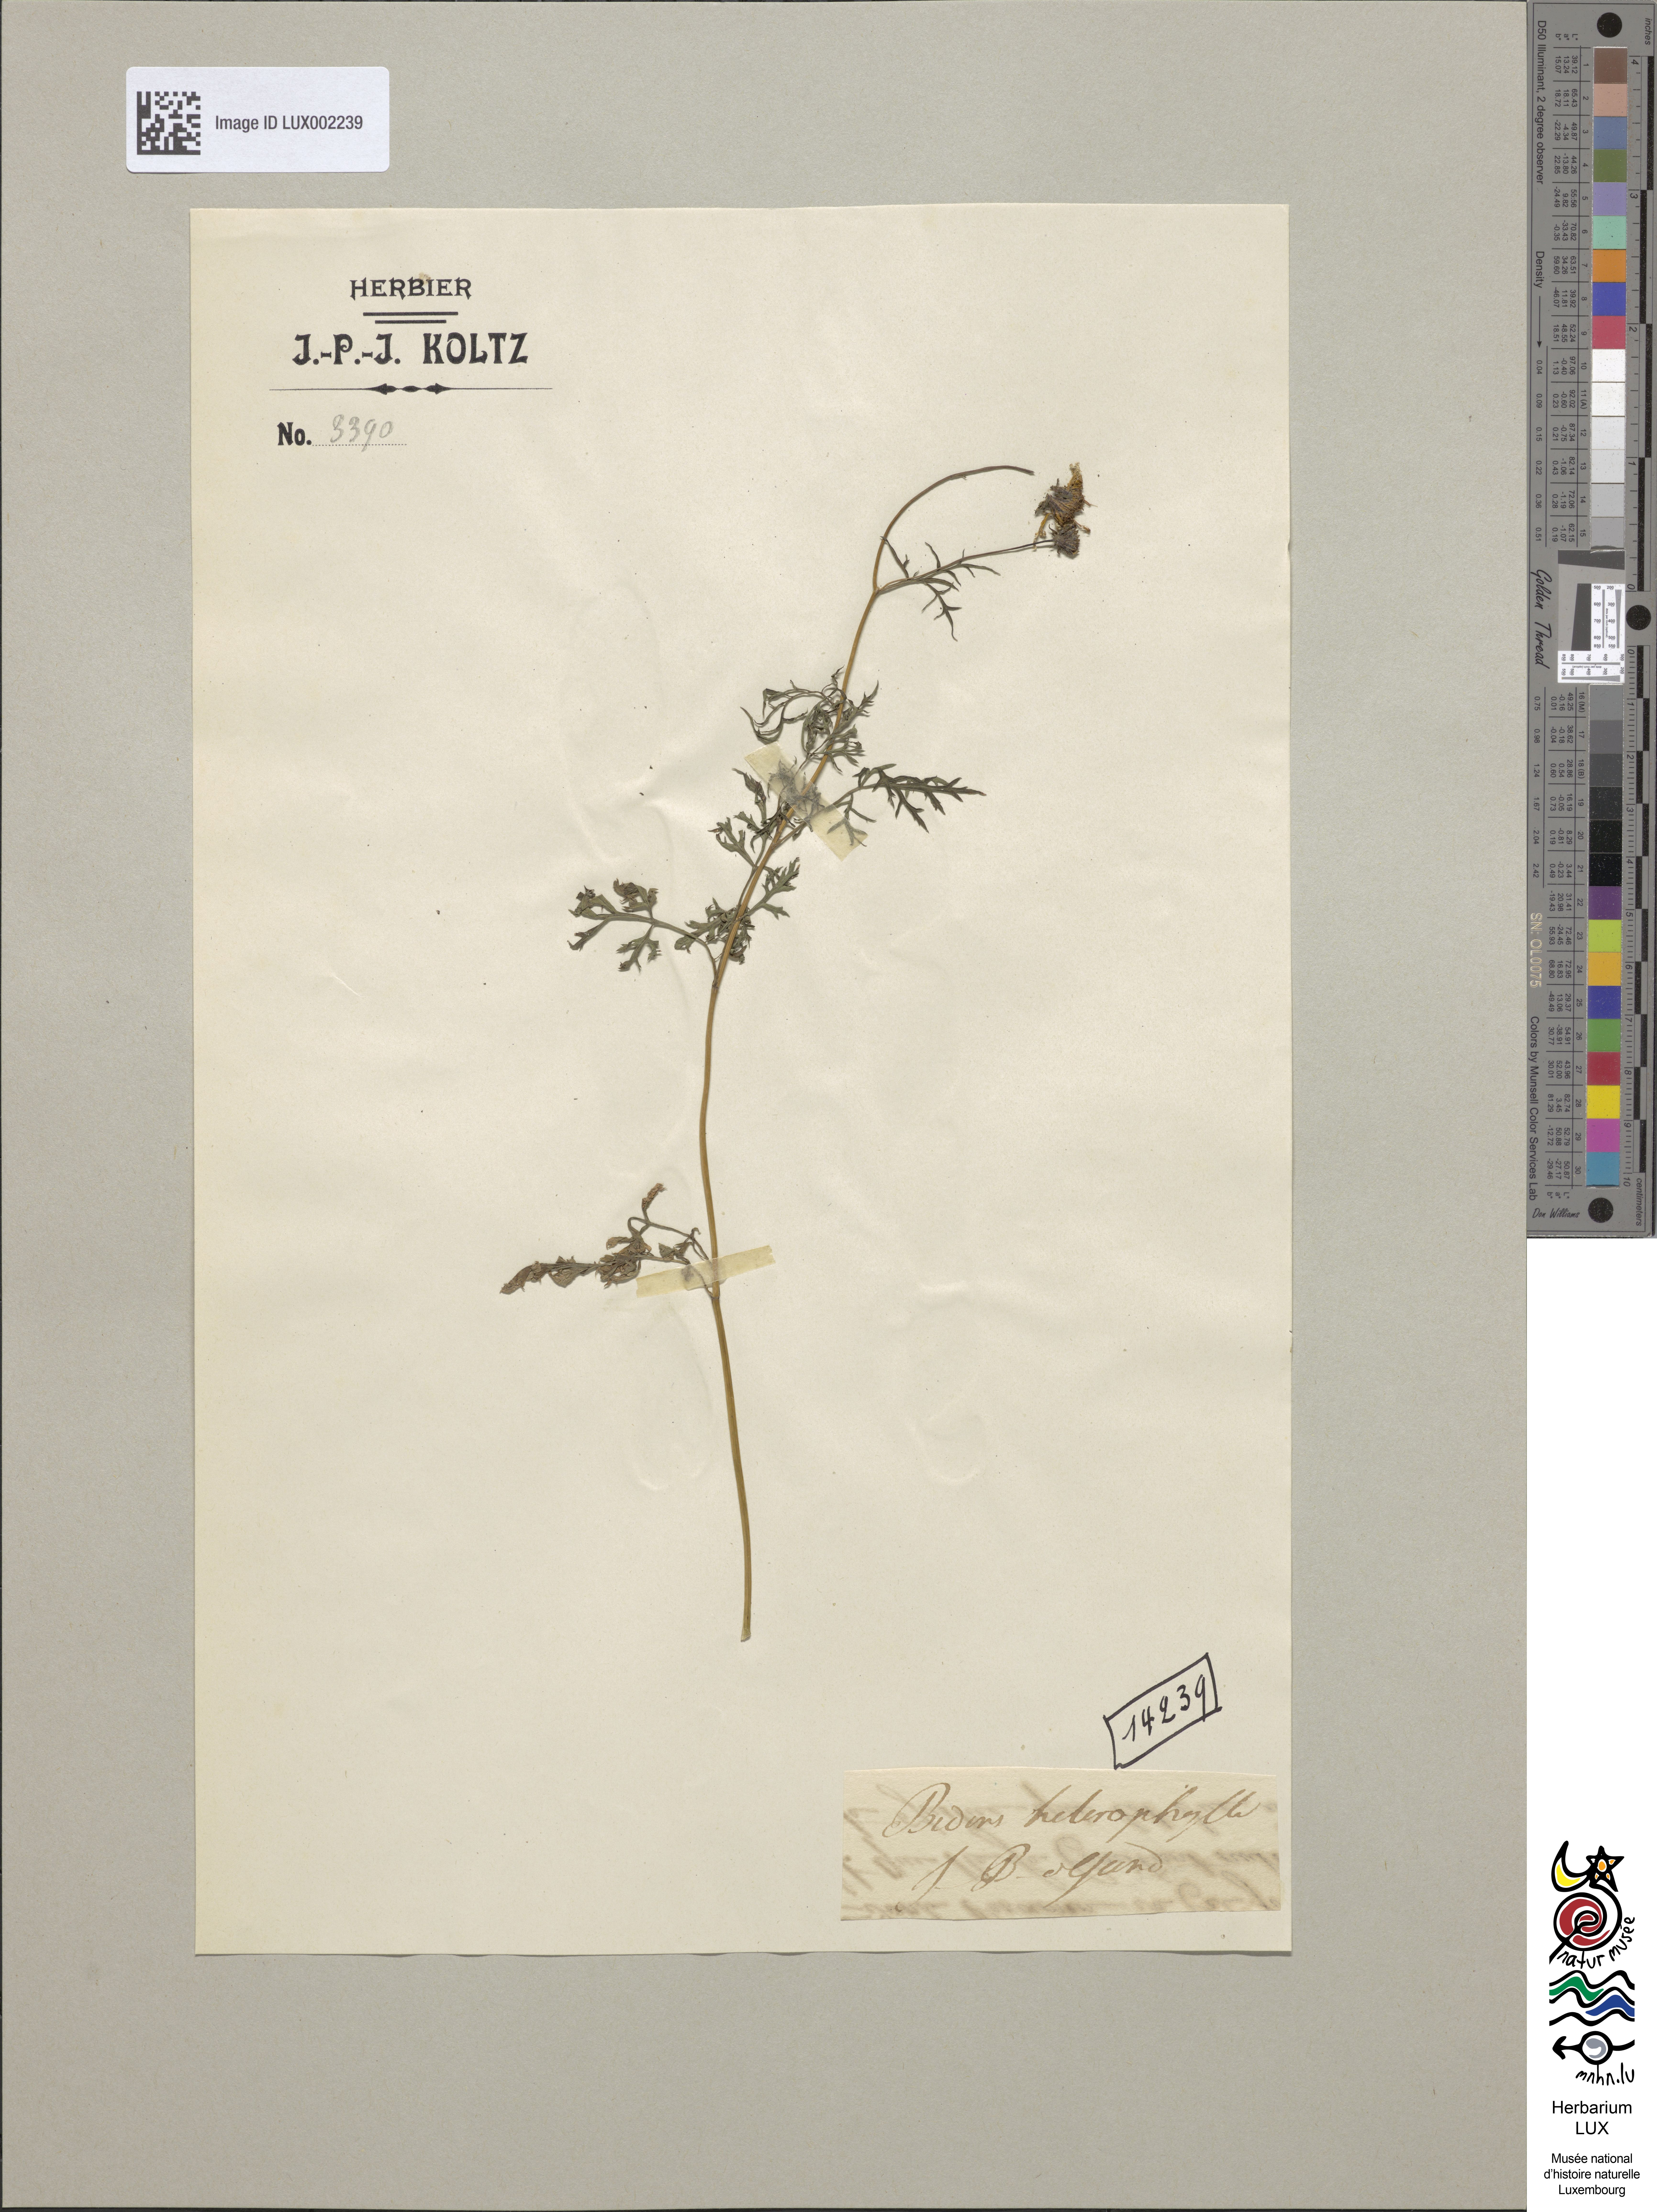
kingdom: Plantae
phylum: Tracheophyta
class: Magnoliopsida
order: Asterales
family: Asteraceae
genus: Bidens
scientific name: Bidens aurea
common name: Arizona beggar-ticks
